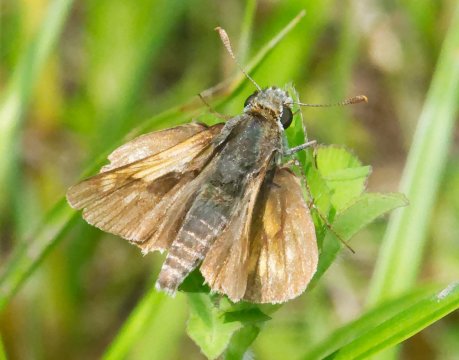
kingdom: Animalia
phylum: Arthropoda
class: Insecta
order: Lepidoptera
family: Hesperiidae
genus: Polites
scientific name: Polites
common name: Long Dash Skipper
